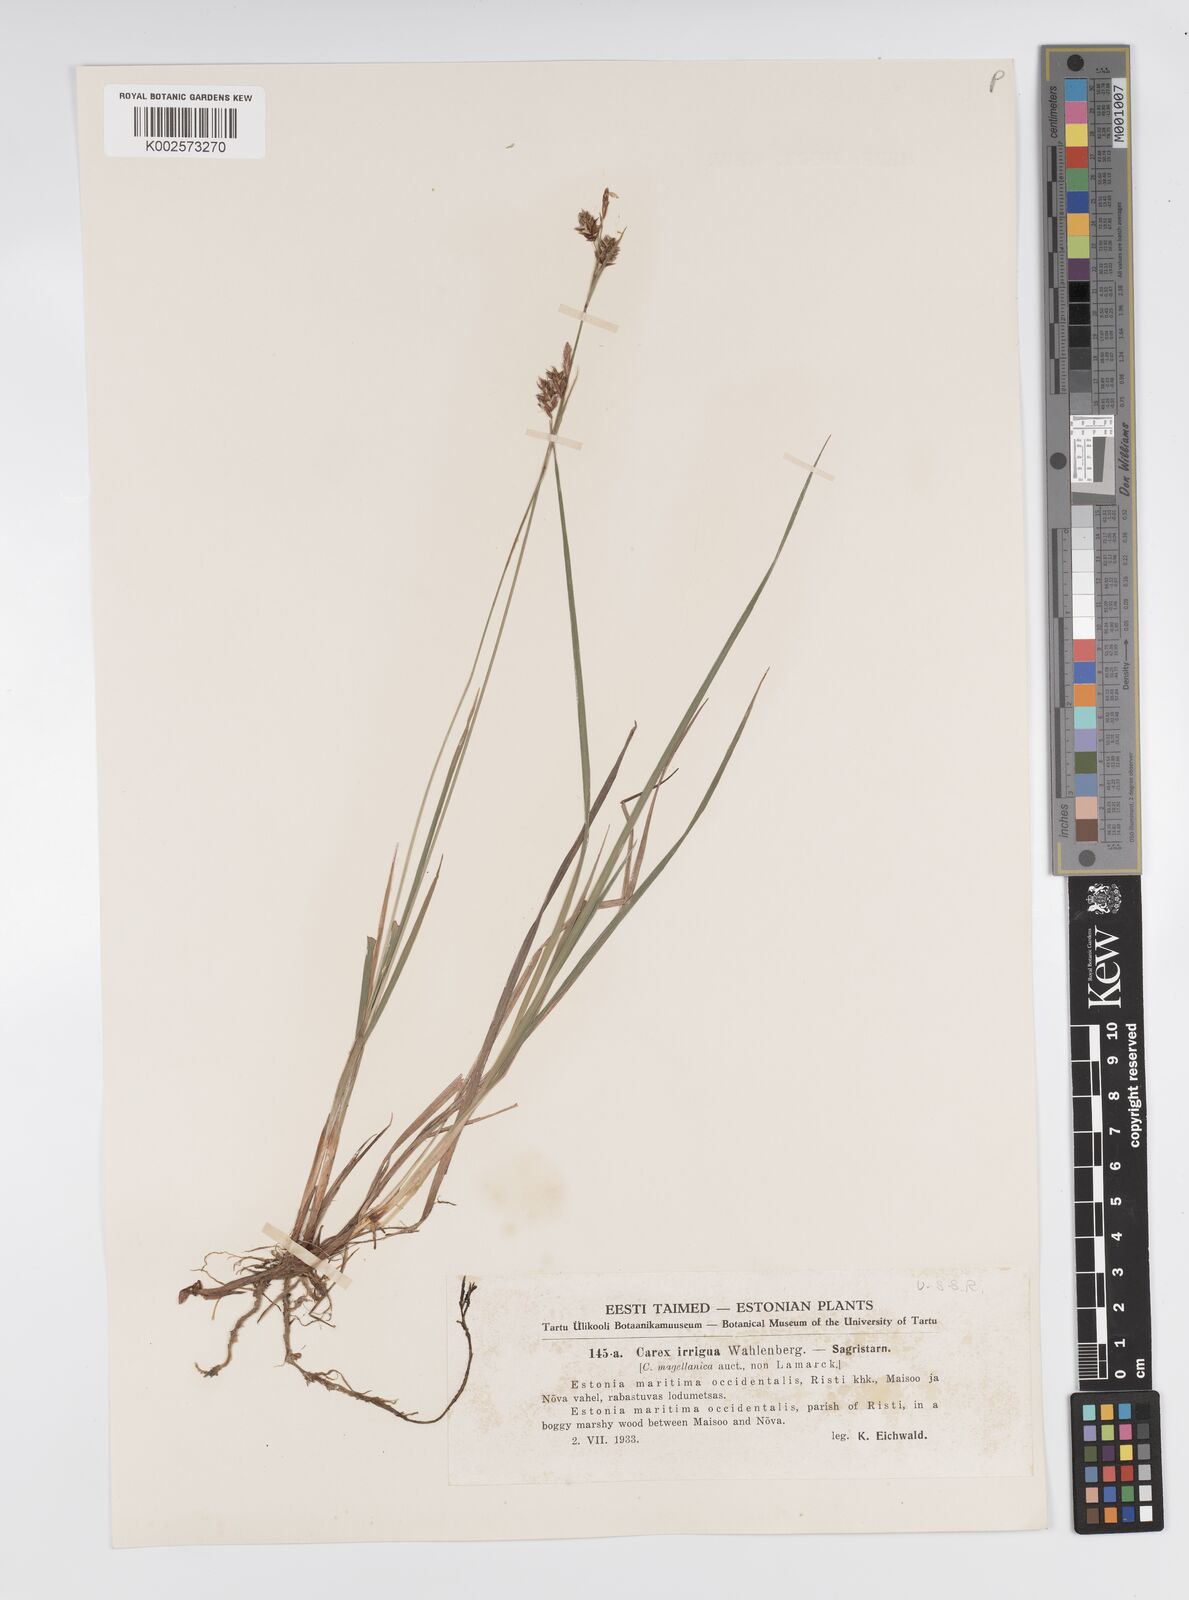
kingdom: Plantae
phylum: Tracheophyta
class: Liliopsida
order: Poales
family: Cyperaceae
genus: Carex
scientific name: Carex magellanica
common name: Bog sedge
